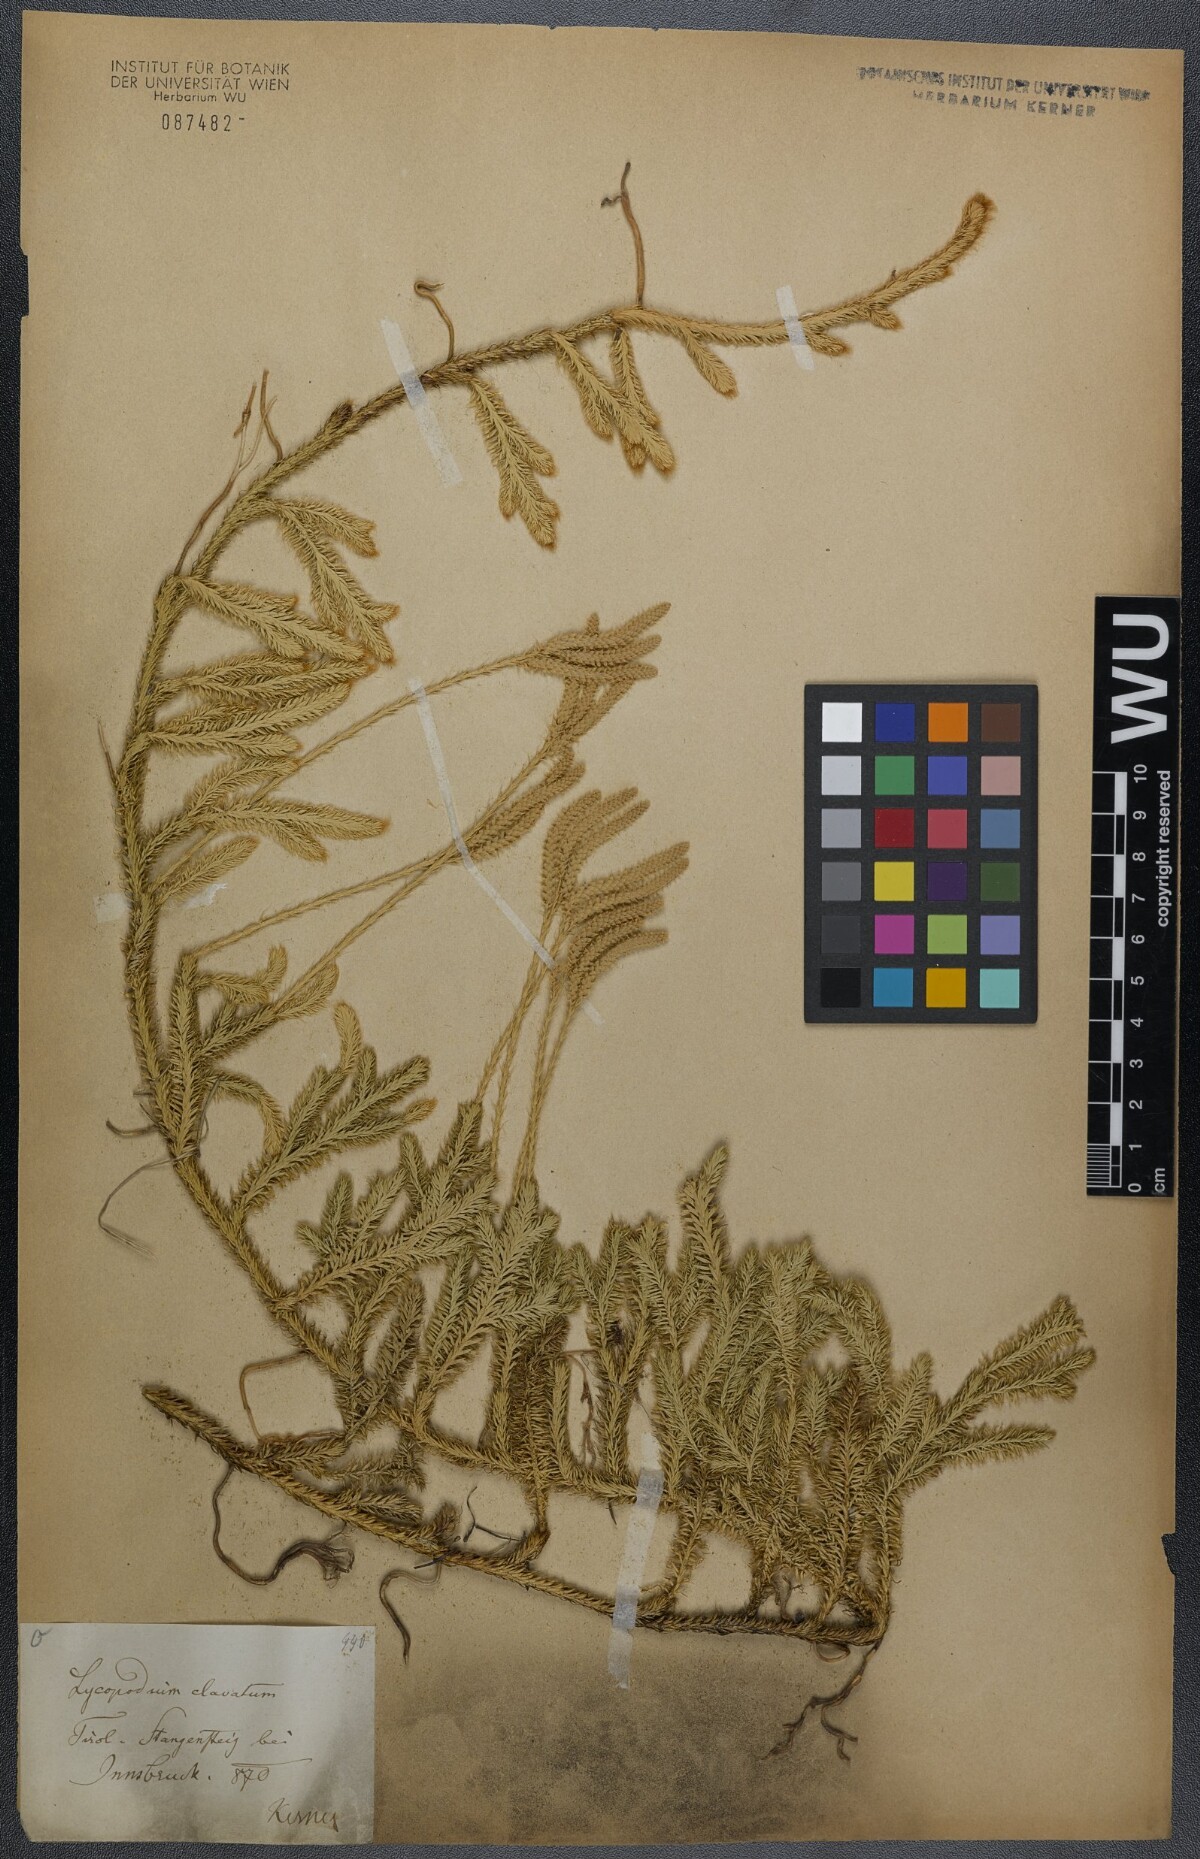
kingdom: Plantae
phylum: Tracheophyta
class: Lycopodiopsida
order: Lycopodiales
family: Lycopodiaceae
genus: Lycopodium
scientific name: Lycopodium clavatum
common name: Stag's-horn clubmoss
